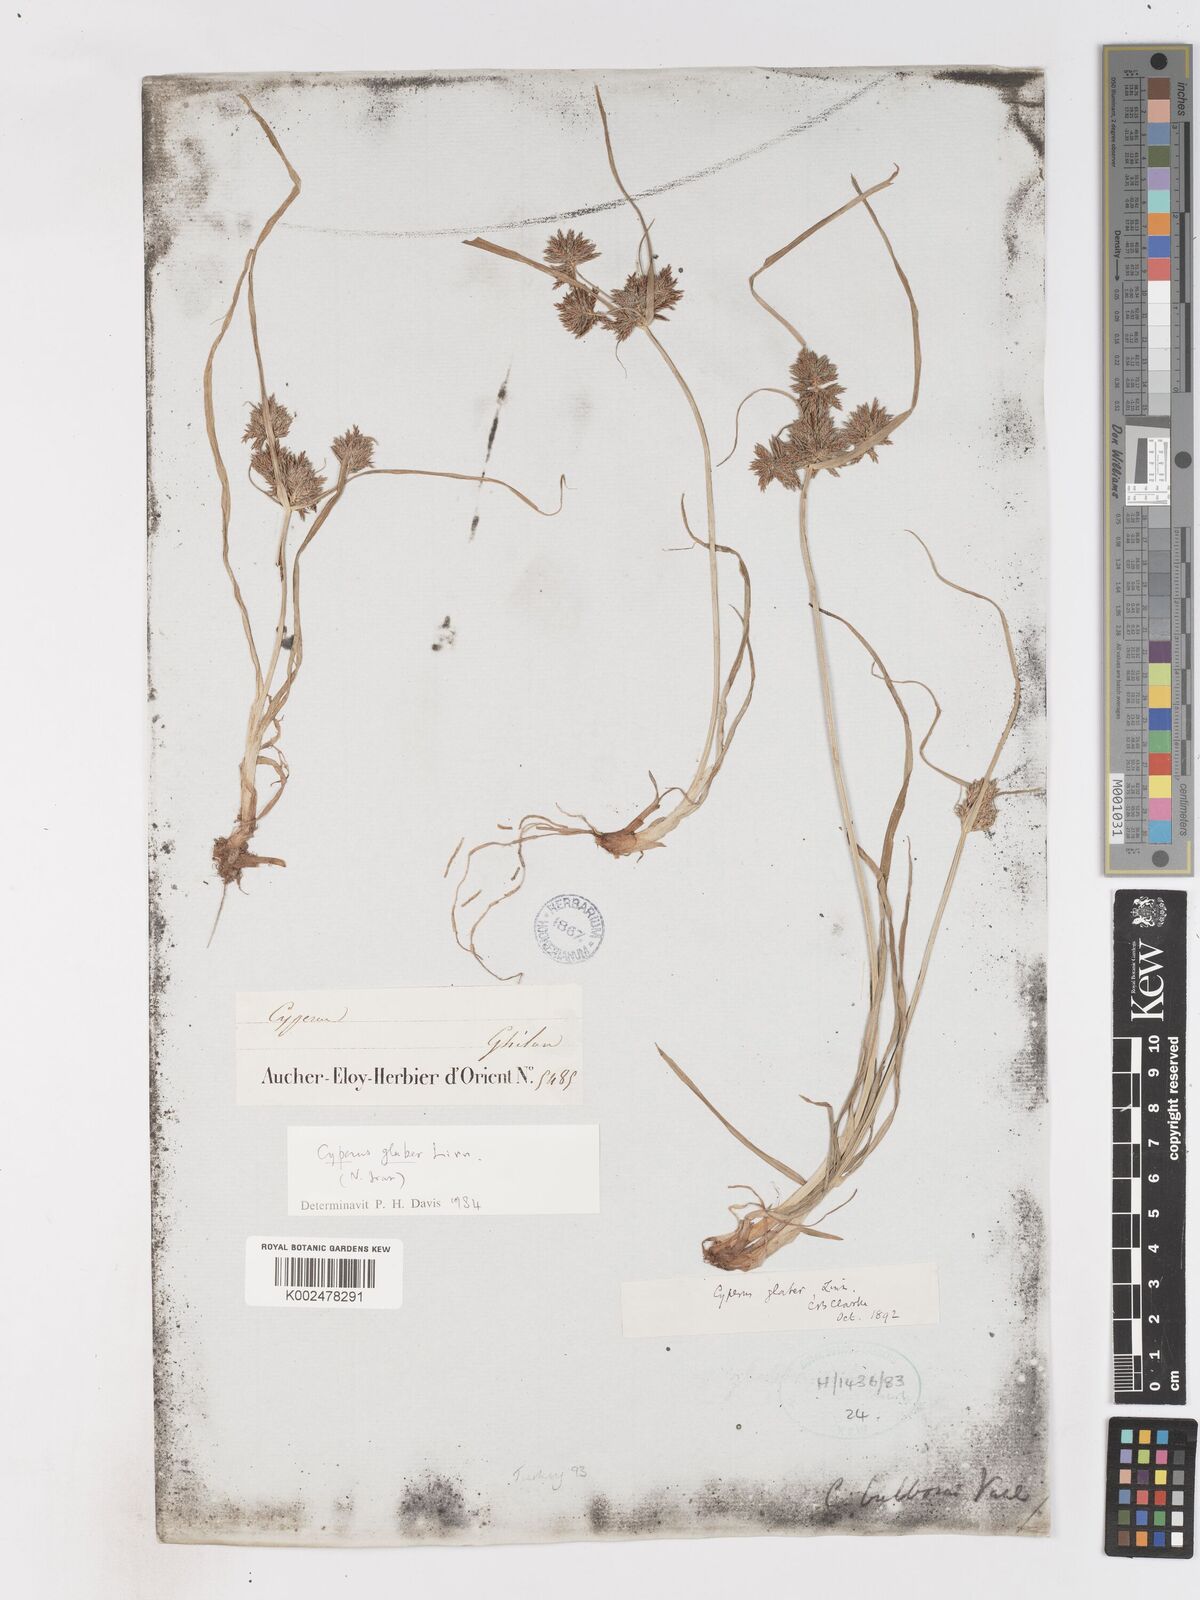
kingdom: Plantae
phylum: Tracheophyta
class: Liliopsida
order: Poales
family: Cyperaceae
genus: Cyperus
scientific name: Cyperus glaber
